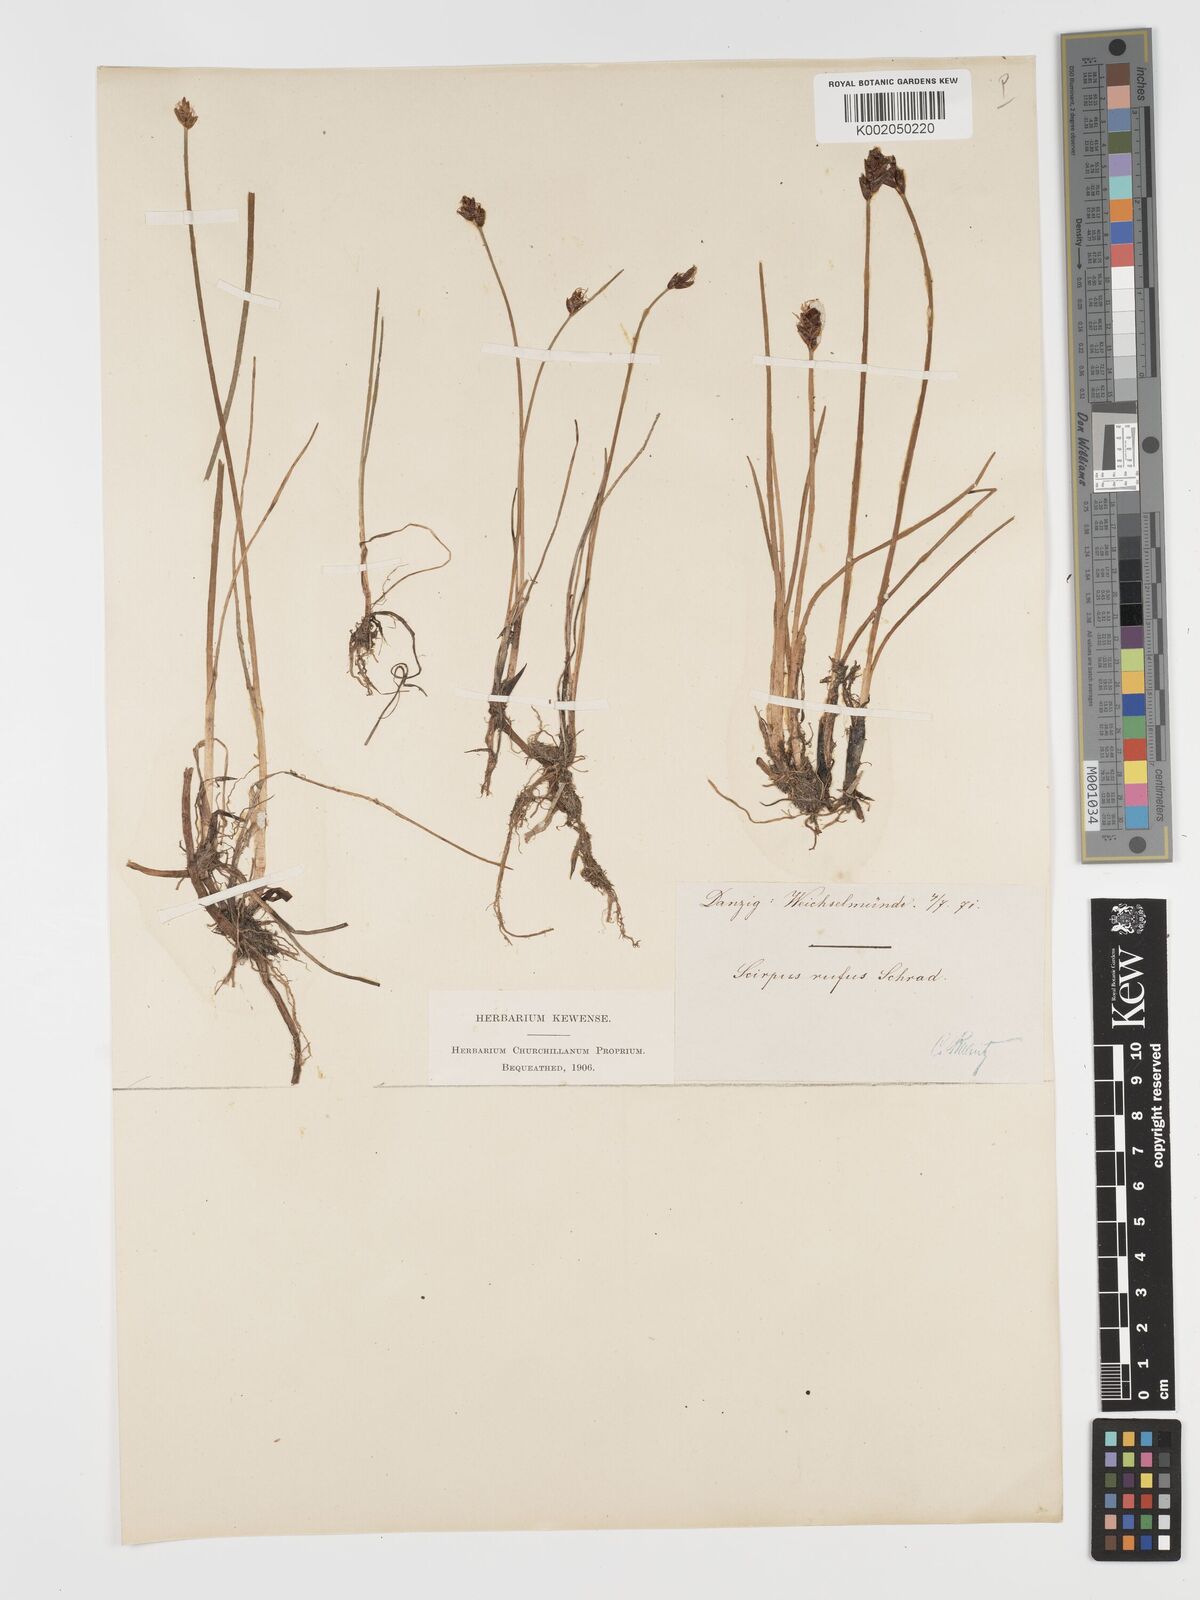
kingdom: Plantae
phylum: Tracheophyta
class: Liliopsida
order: Poales
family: Cyperaceae
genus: Blysmus
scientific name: Blysmus rufus
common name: Saltmarsh flat-sedge
